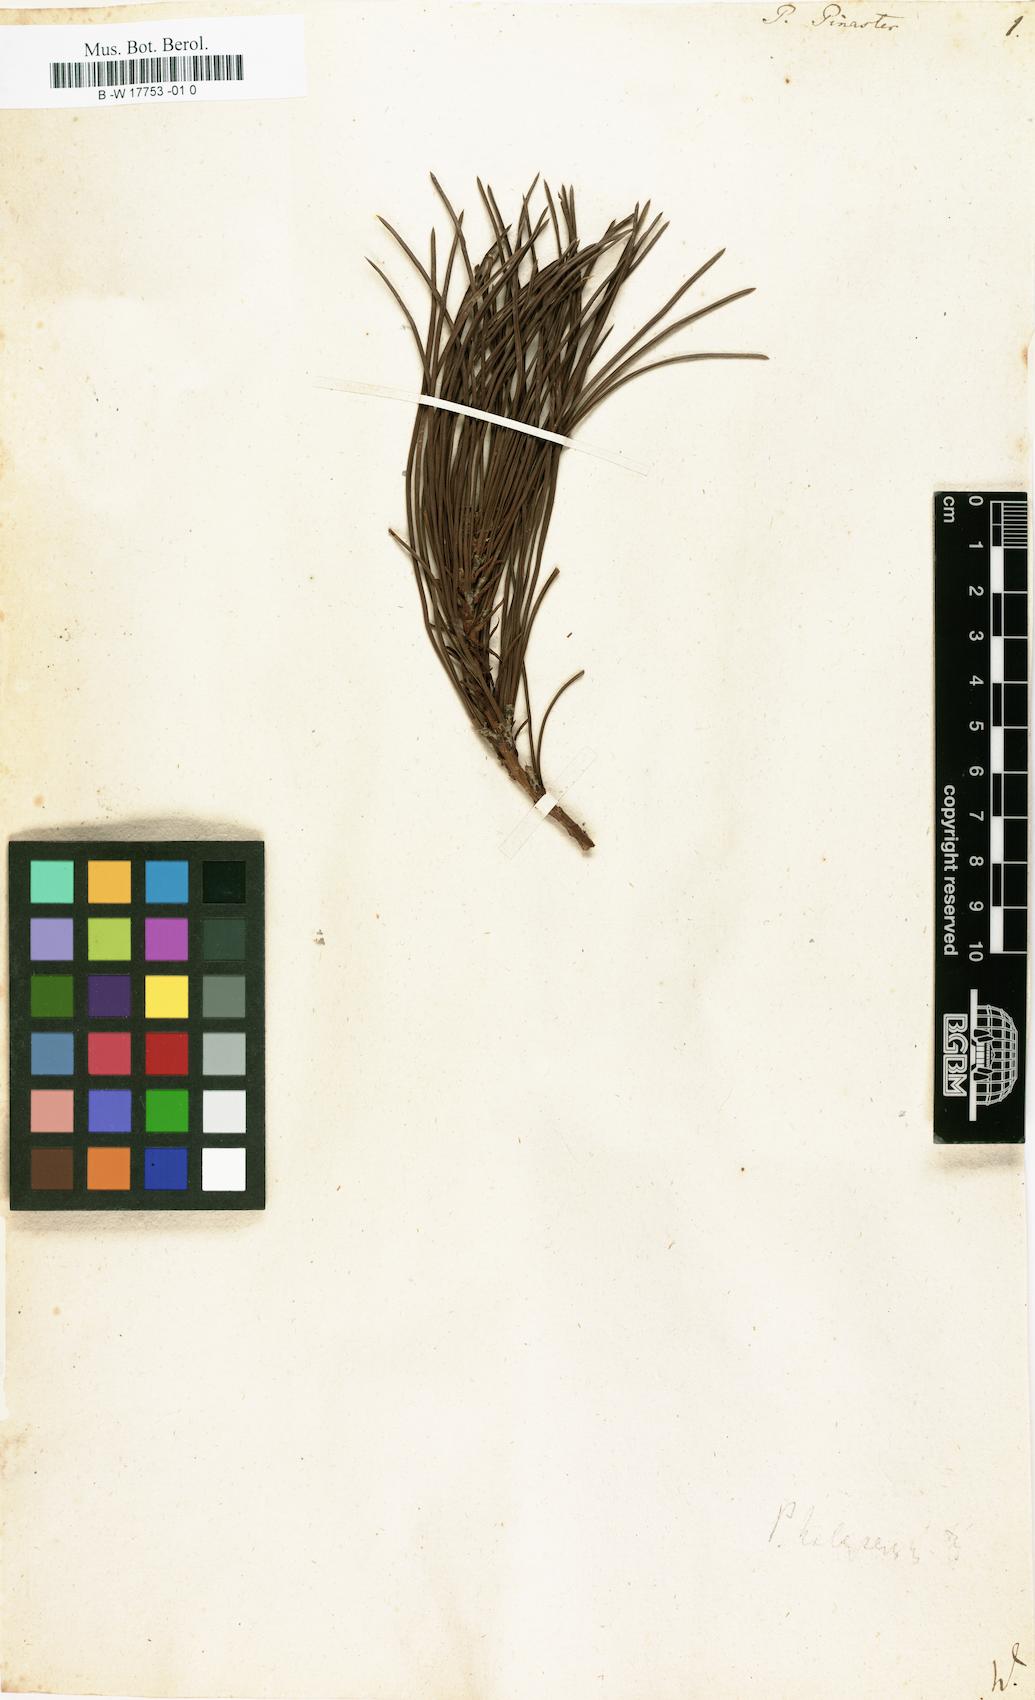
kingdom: Plantae
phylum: Tracheophyta
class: Pinopsida
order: Pinales
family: Pinaceae
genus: Pinus
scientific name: Pinus pinaster
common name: Maritime pine
